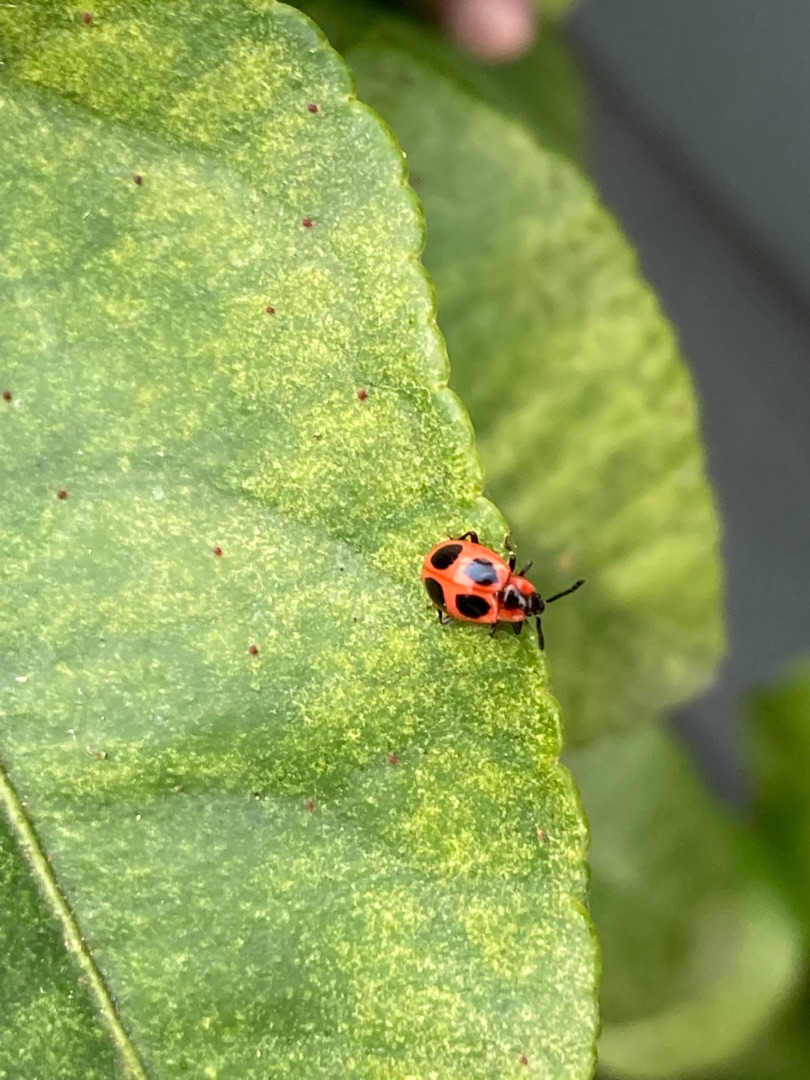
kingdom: Animalia
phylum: Arthropoda
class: Insecta
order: Coleoptera
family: Endomychidae
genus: Endomychus
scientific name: Endomychus coccineus
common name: Skarlagensvampehøne
